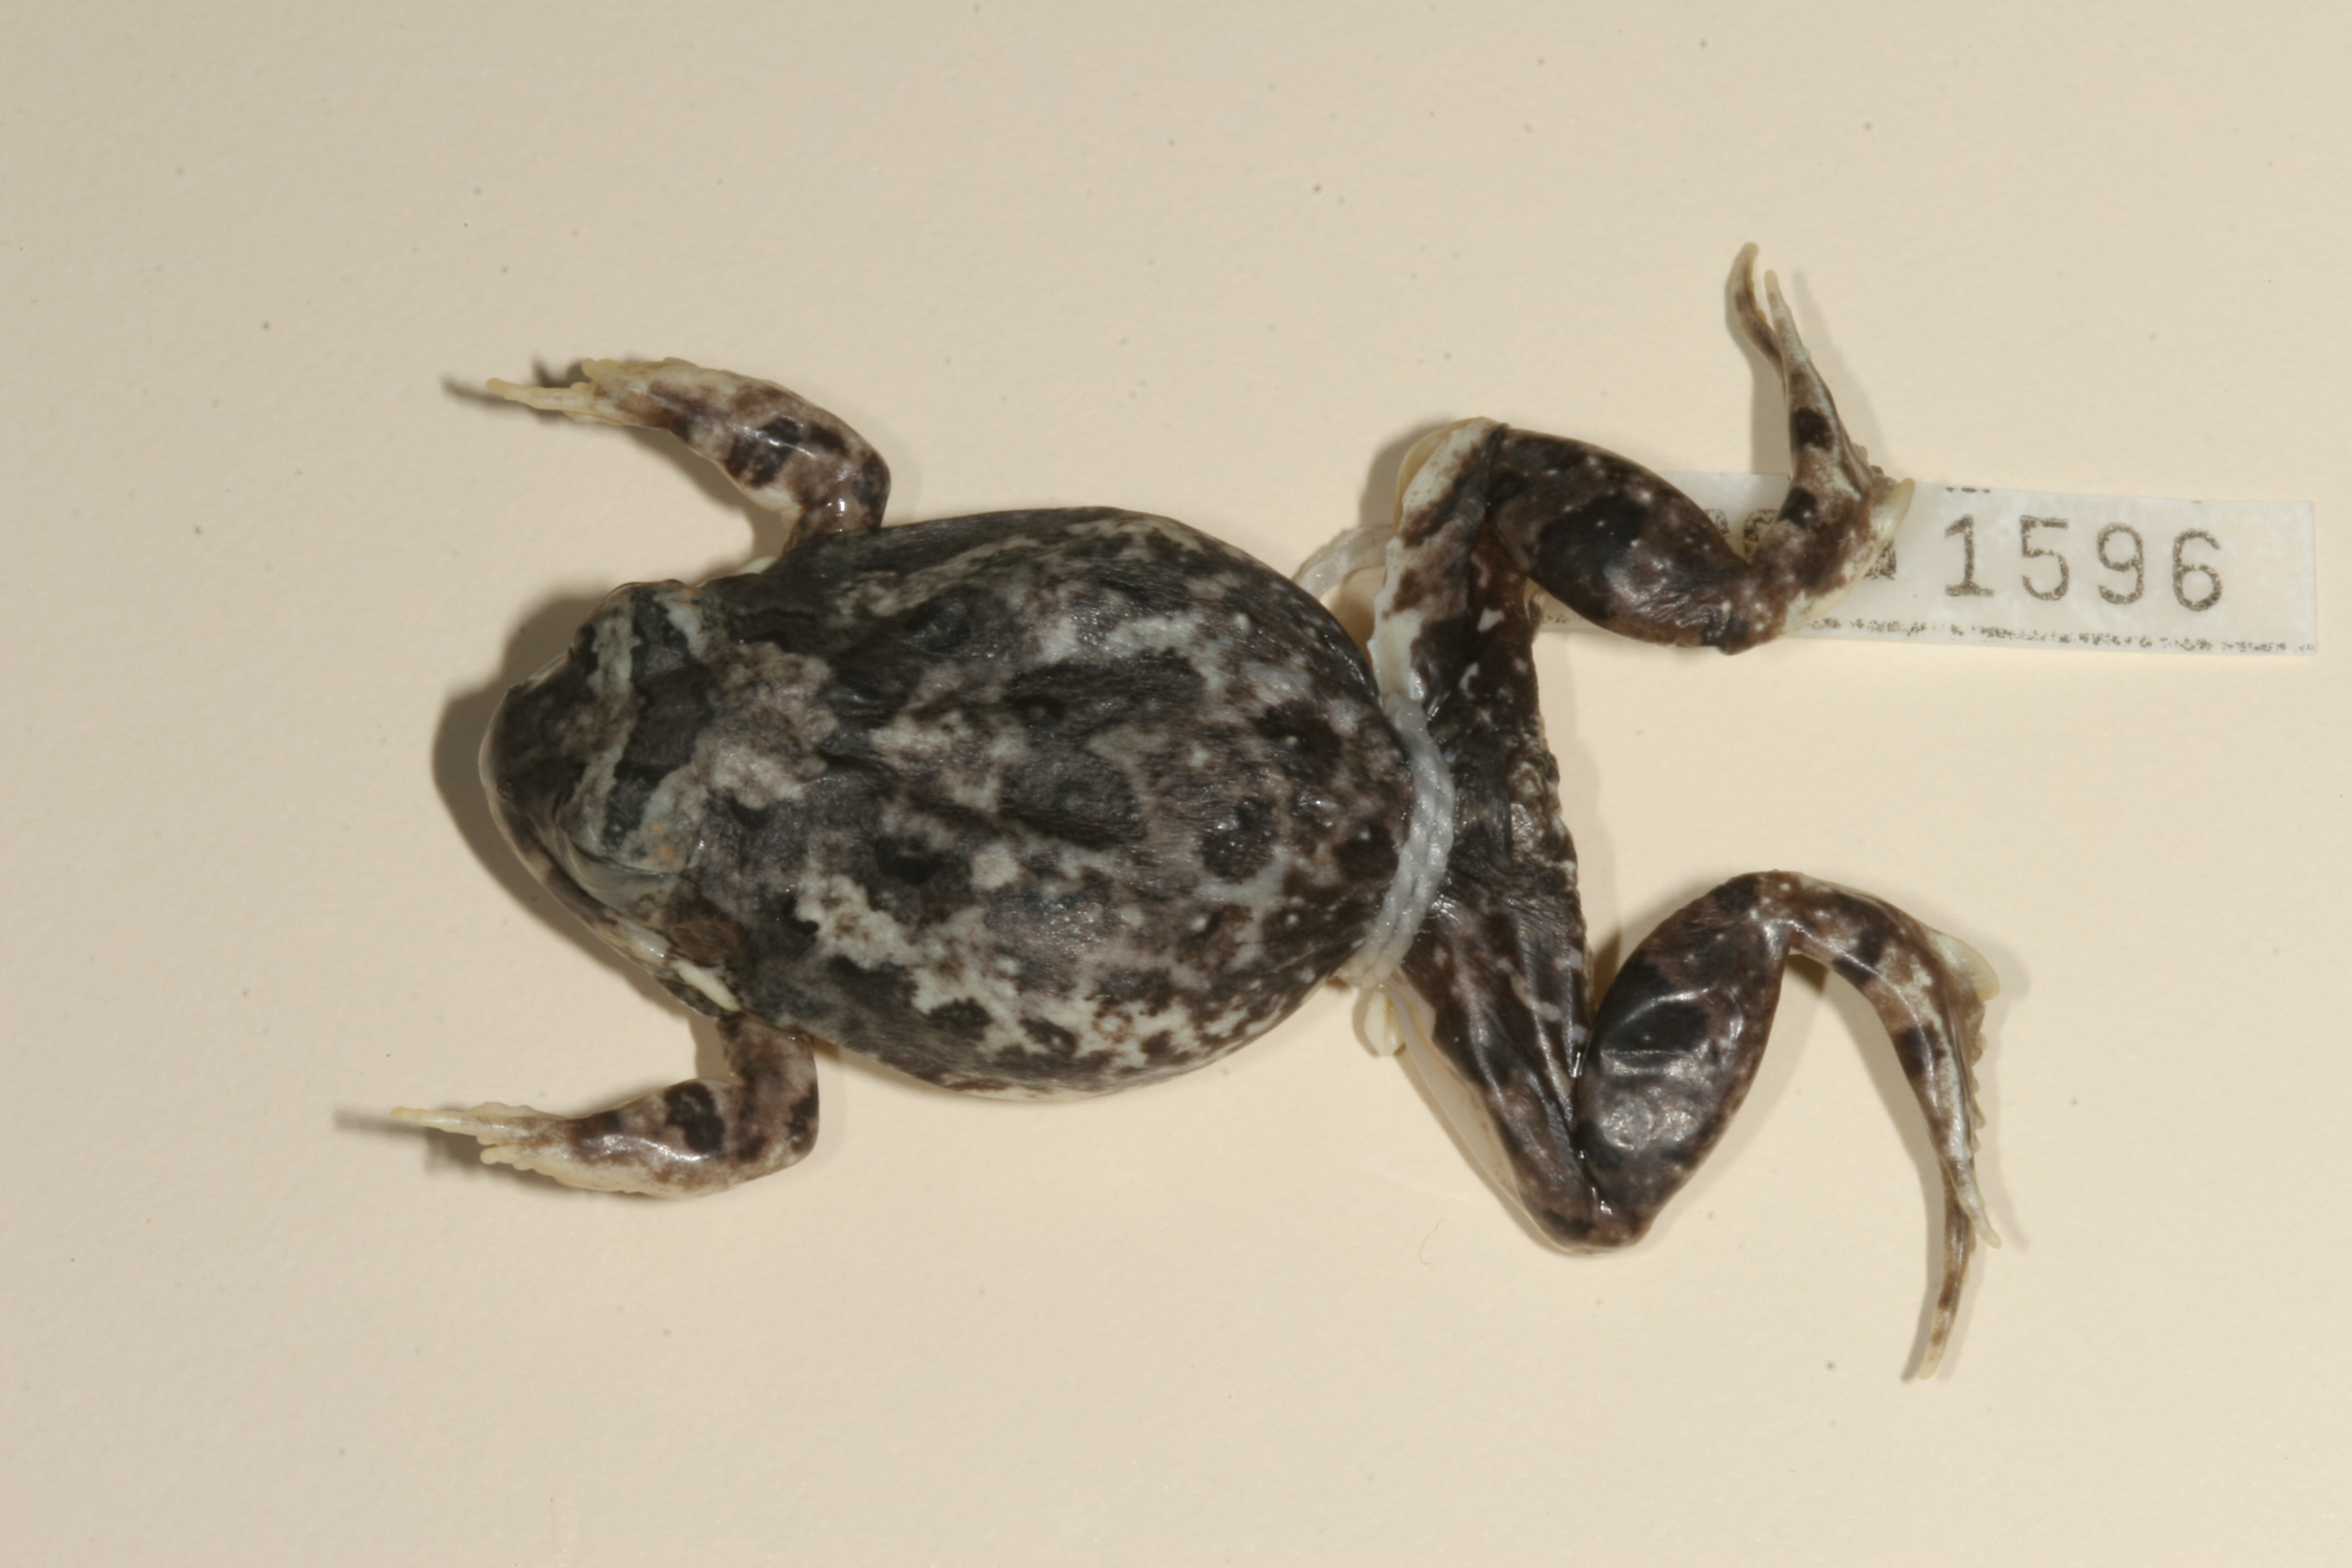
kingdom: Animalia
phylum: Chordata
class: Amphibia
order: Anura
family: Pyxicephalidae
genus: Tomopterna
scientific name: Tomopterna cryptotis
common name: Catequero bullfrog
